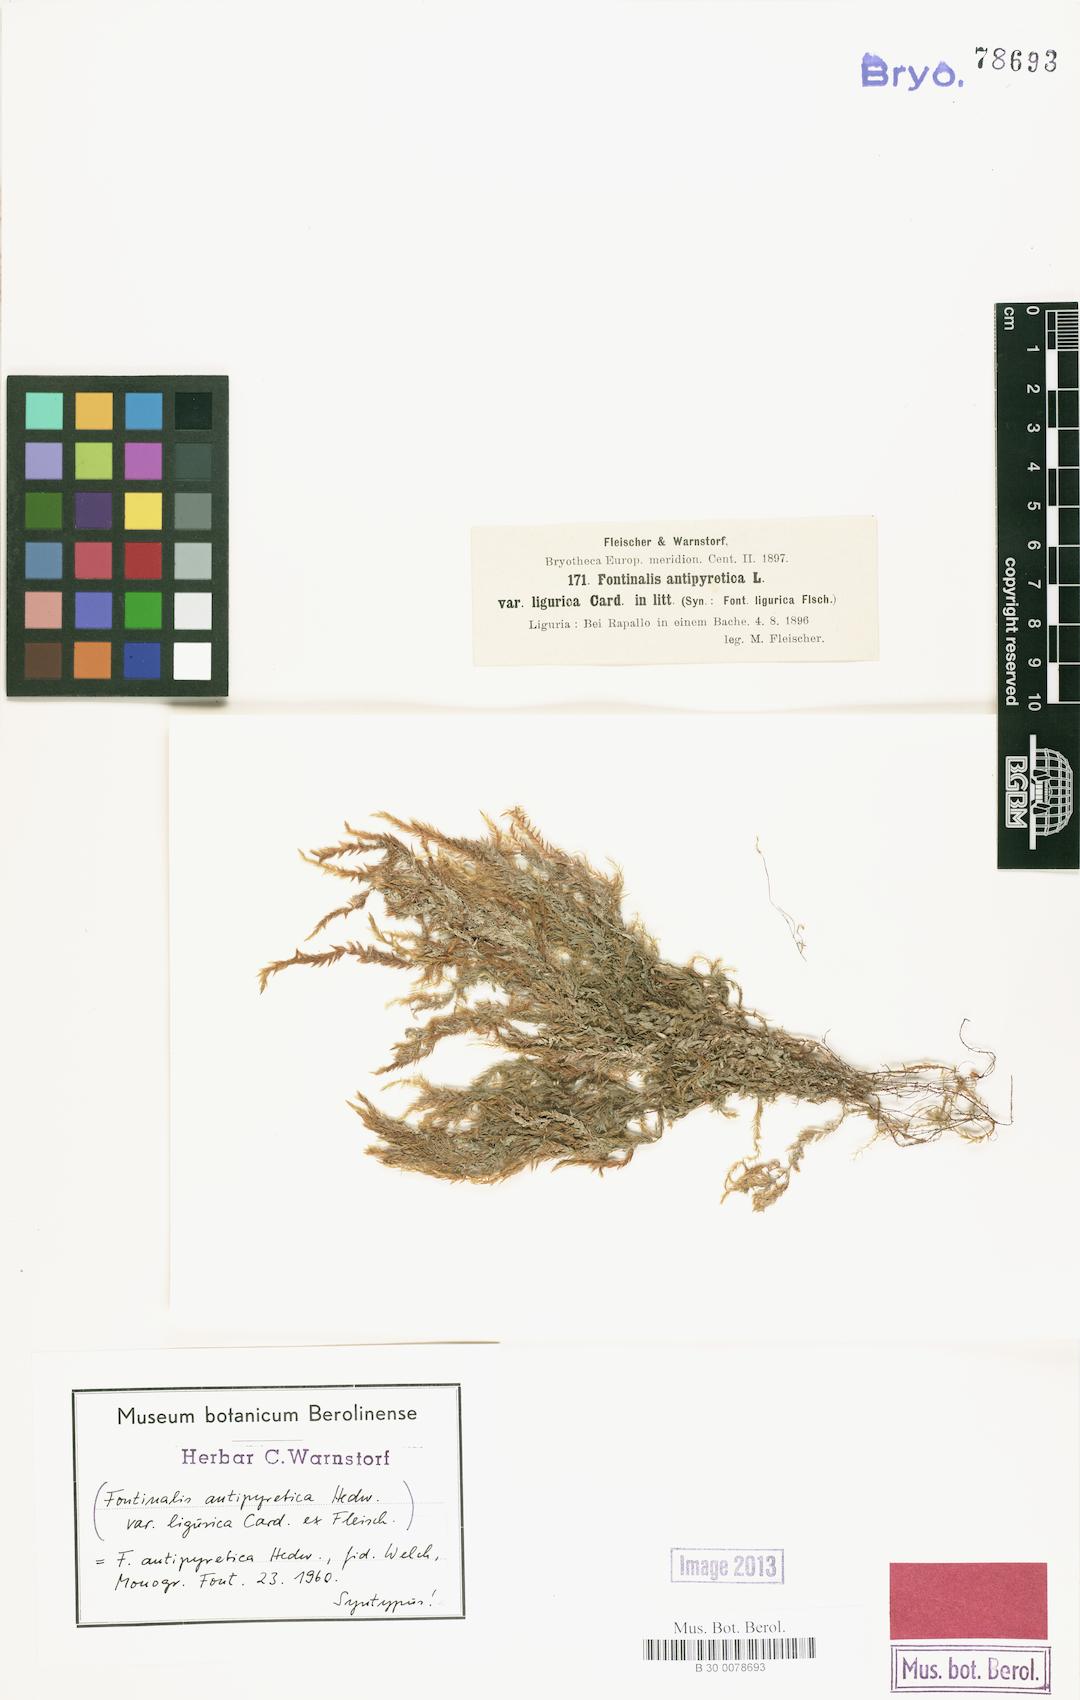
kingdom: Plantae
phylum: Bryophyta
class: Bryopsida
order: Hypnales
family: Fontinalaceae
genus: Fontinalis
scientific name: Fontinalis antipyretica
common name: Greater water-moss
